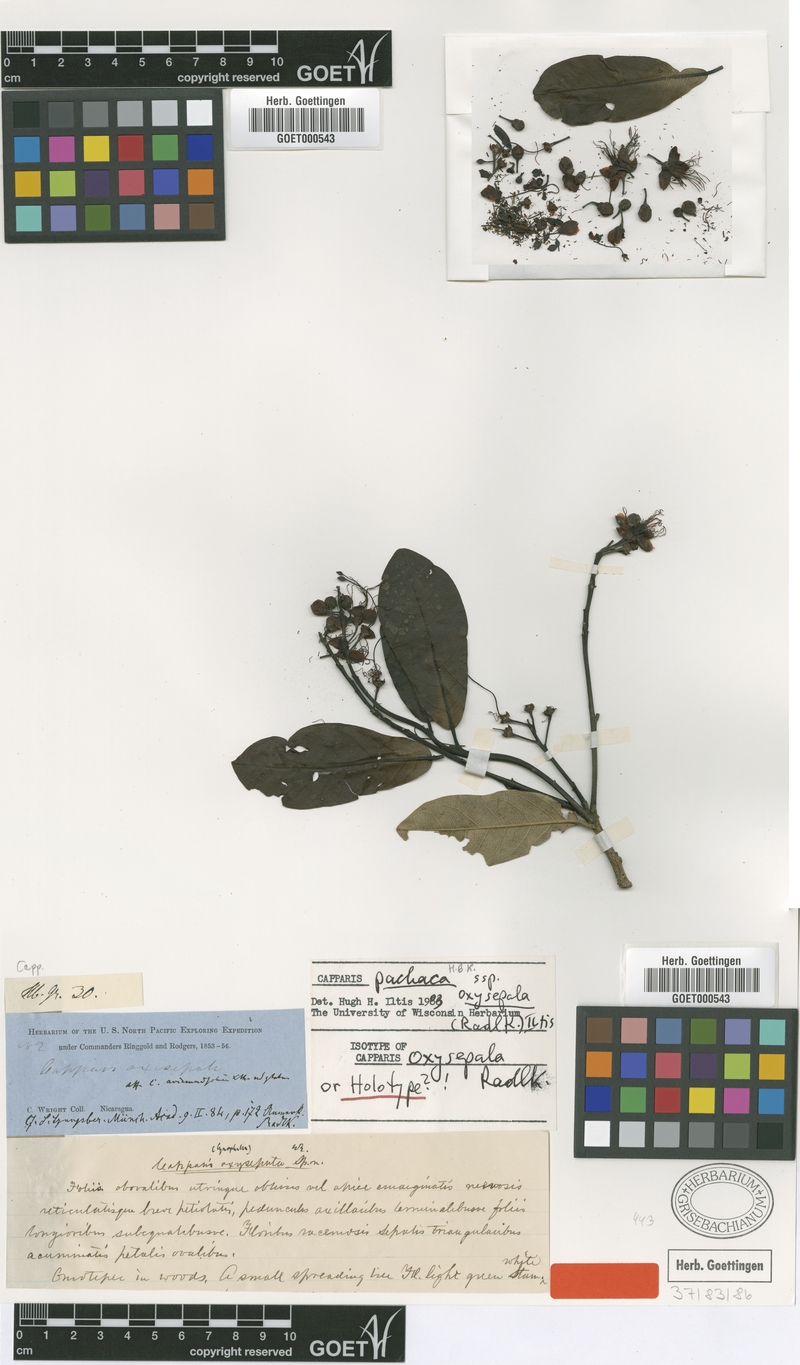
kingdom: Plantae
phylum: Tracheophyta
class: Magnoliopsida
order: Brassicales
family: Capparaceae
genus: Neocapparis
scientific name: Neocapparis pachaca
